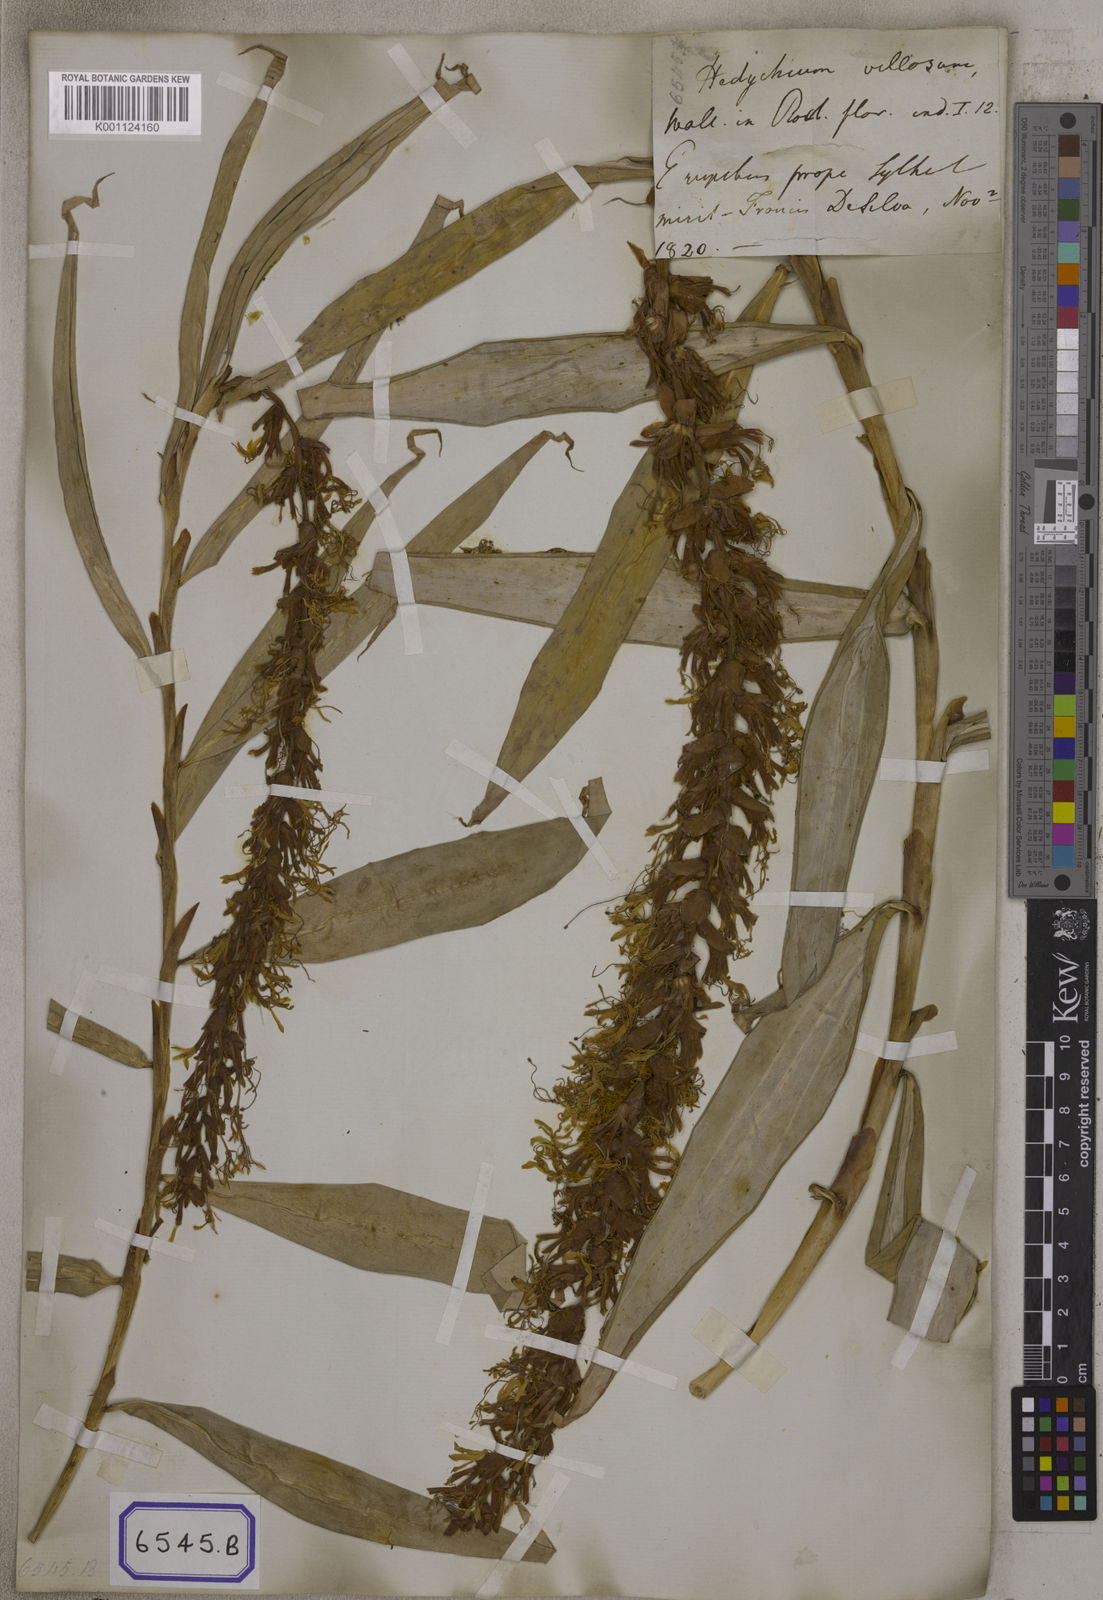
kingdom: Plantae
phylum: Tracheophyta
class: Liliopsida
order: Zingiberales
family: Zingiberaceae
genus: Hedychium
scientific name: Hedychium villosum
